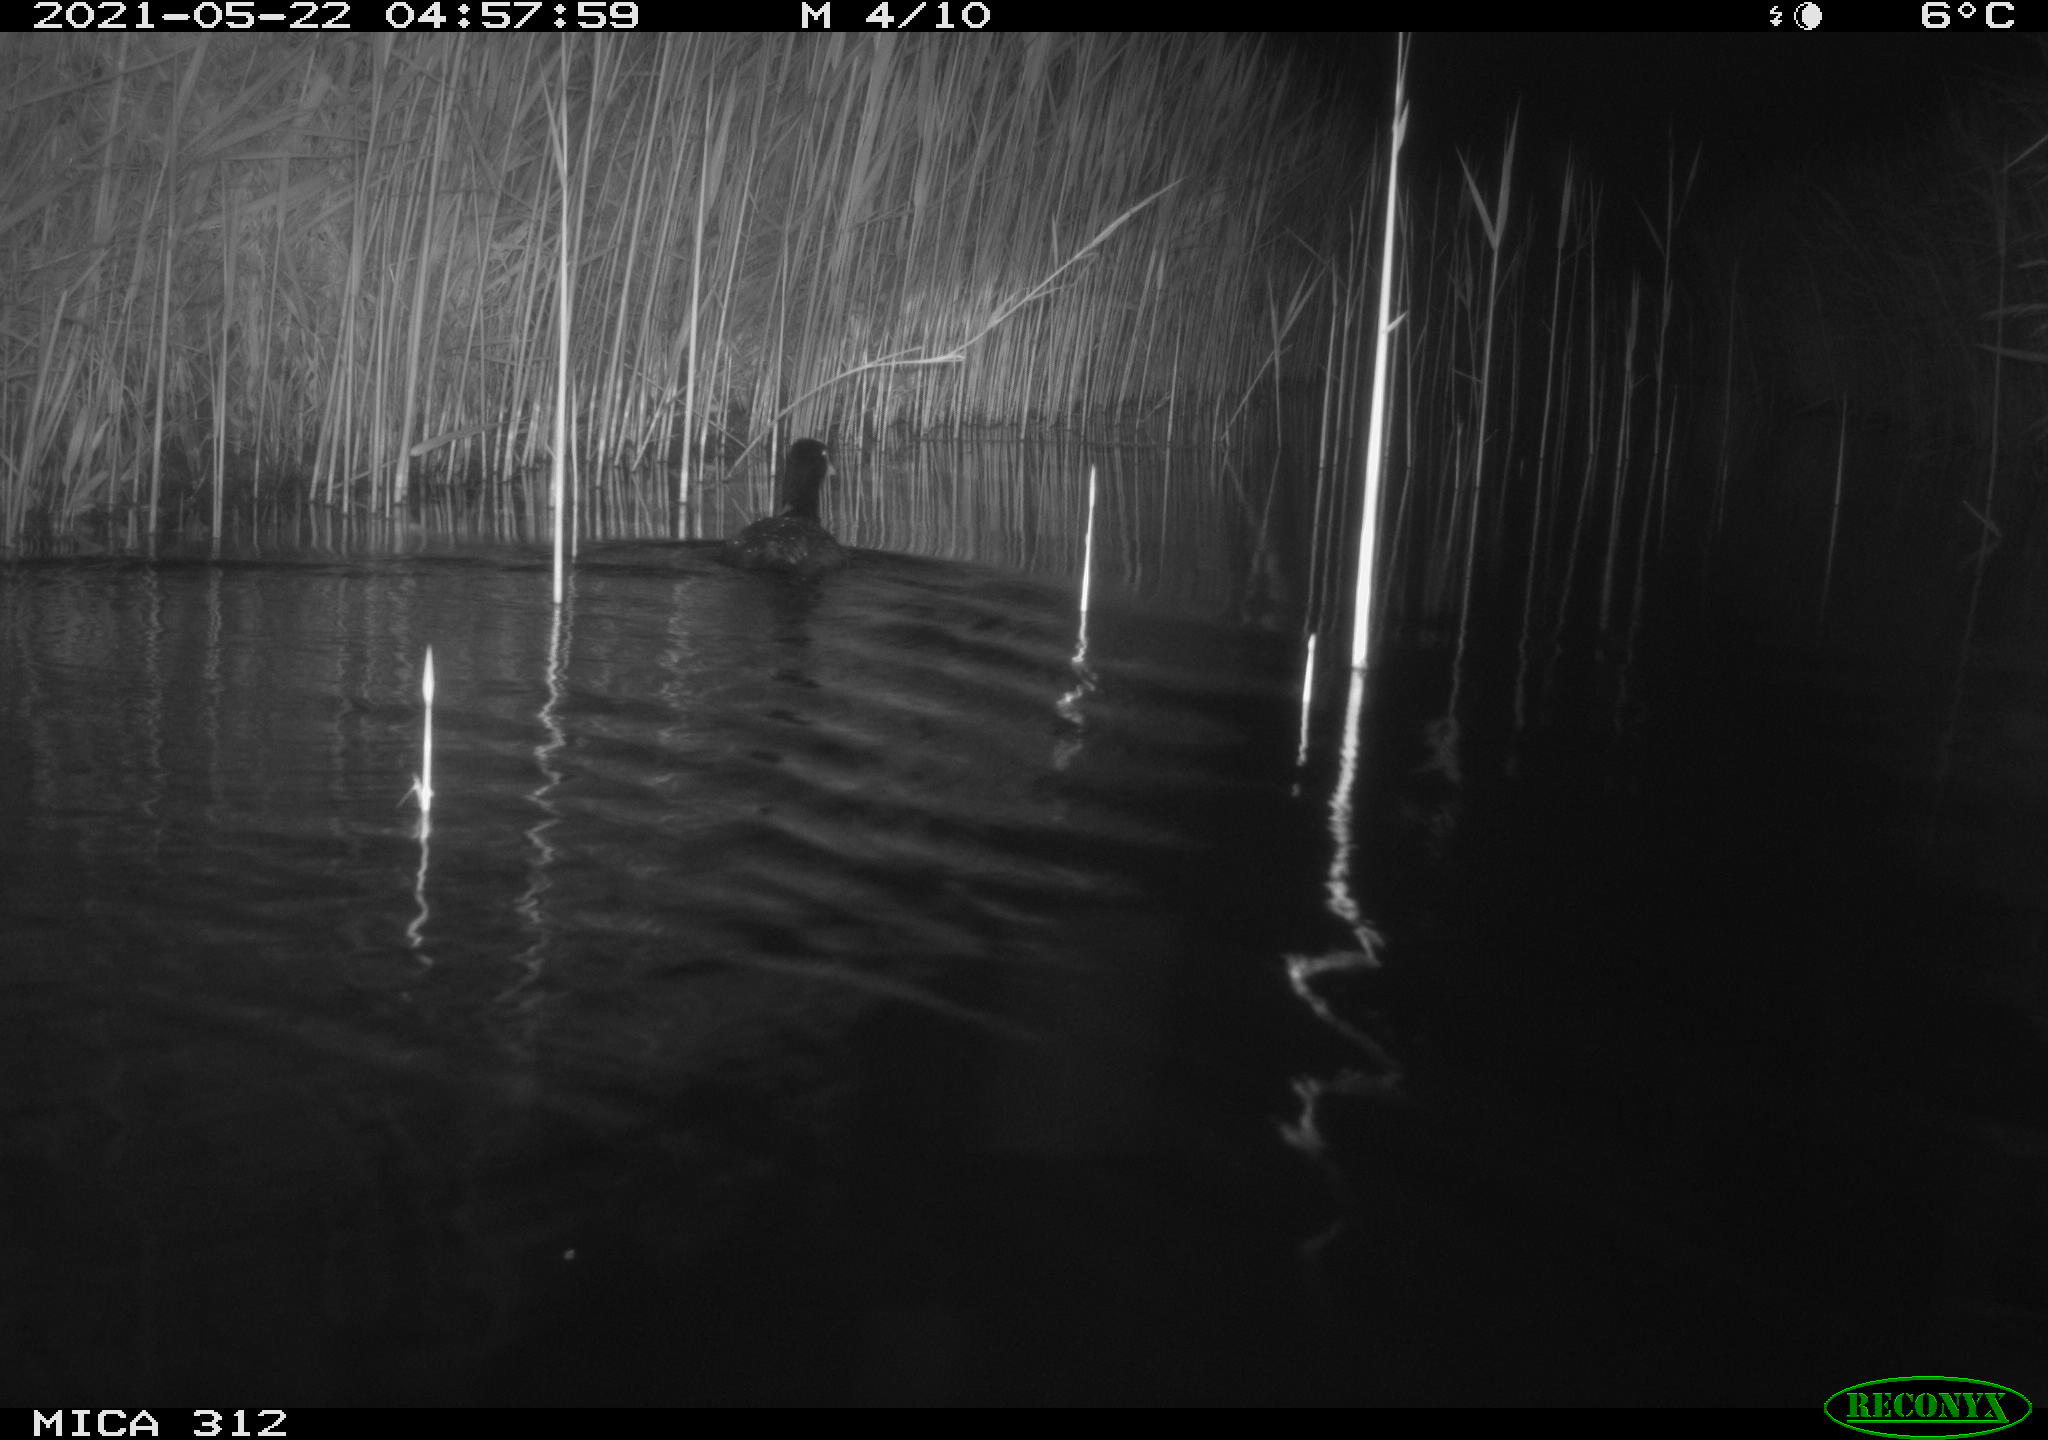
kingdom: Animalia
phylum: Chordata
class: Aves
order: Gruiformes
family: Rallidae
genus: Fulica
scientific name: Fulica atra
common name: Eurasian coot
